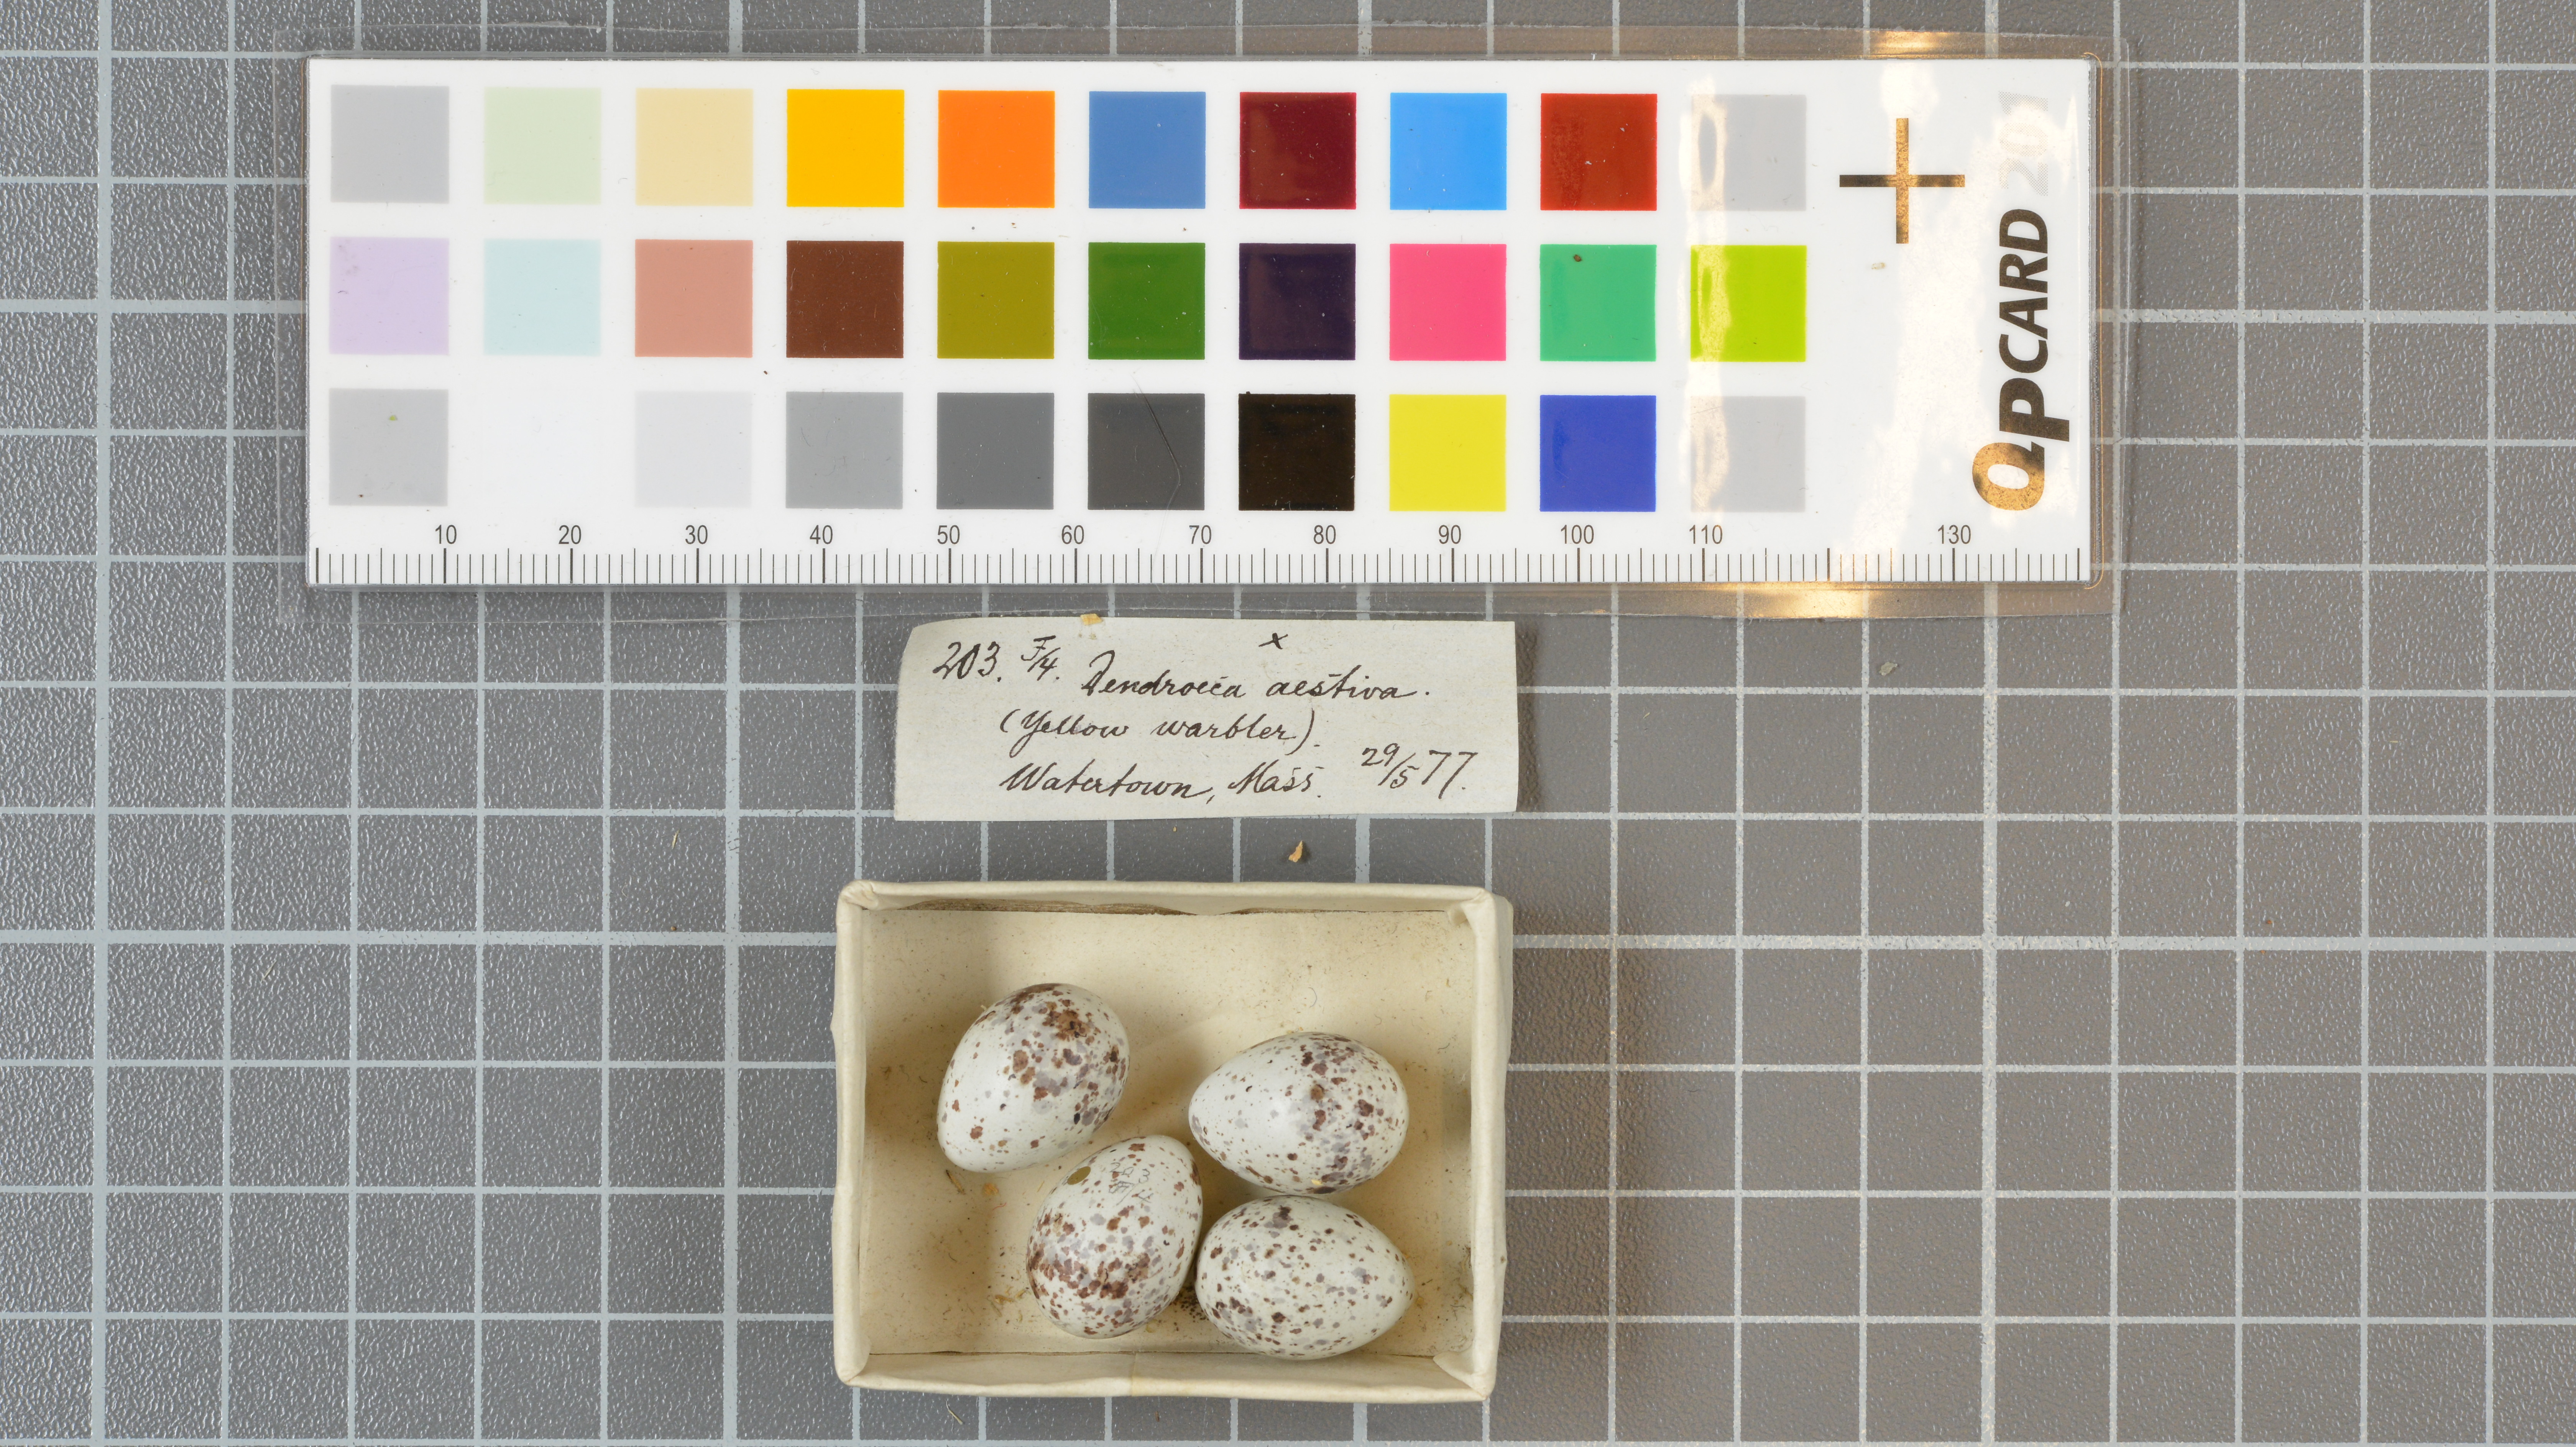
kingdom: Animalia
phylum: Chordata
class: Aves
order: Passeriformes
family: Parulidae
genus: Setophaga
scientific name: Setophaga aestiva
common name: American yellow warbler
